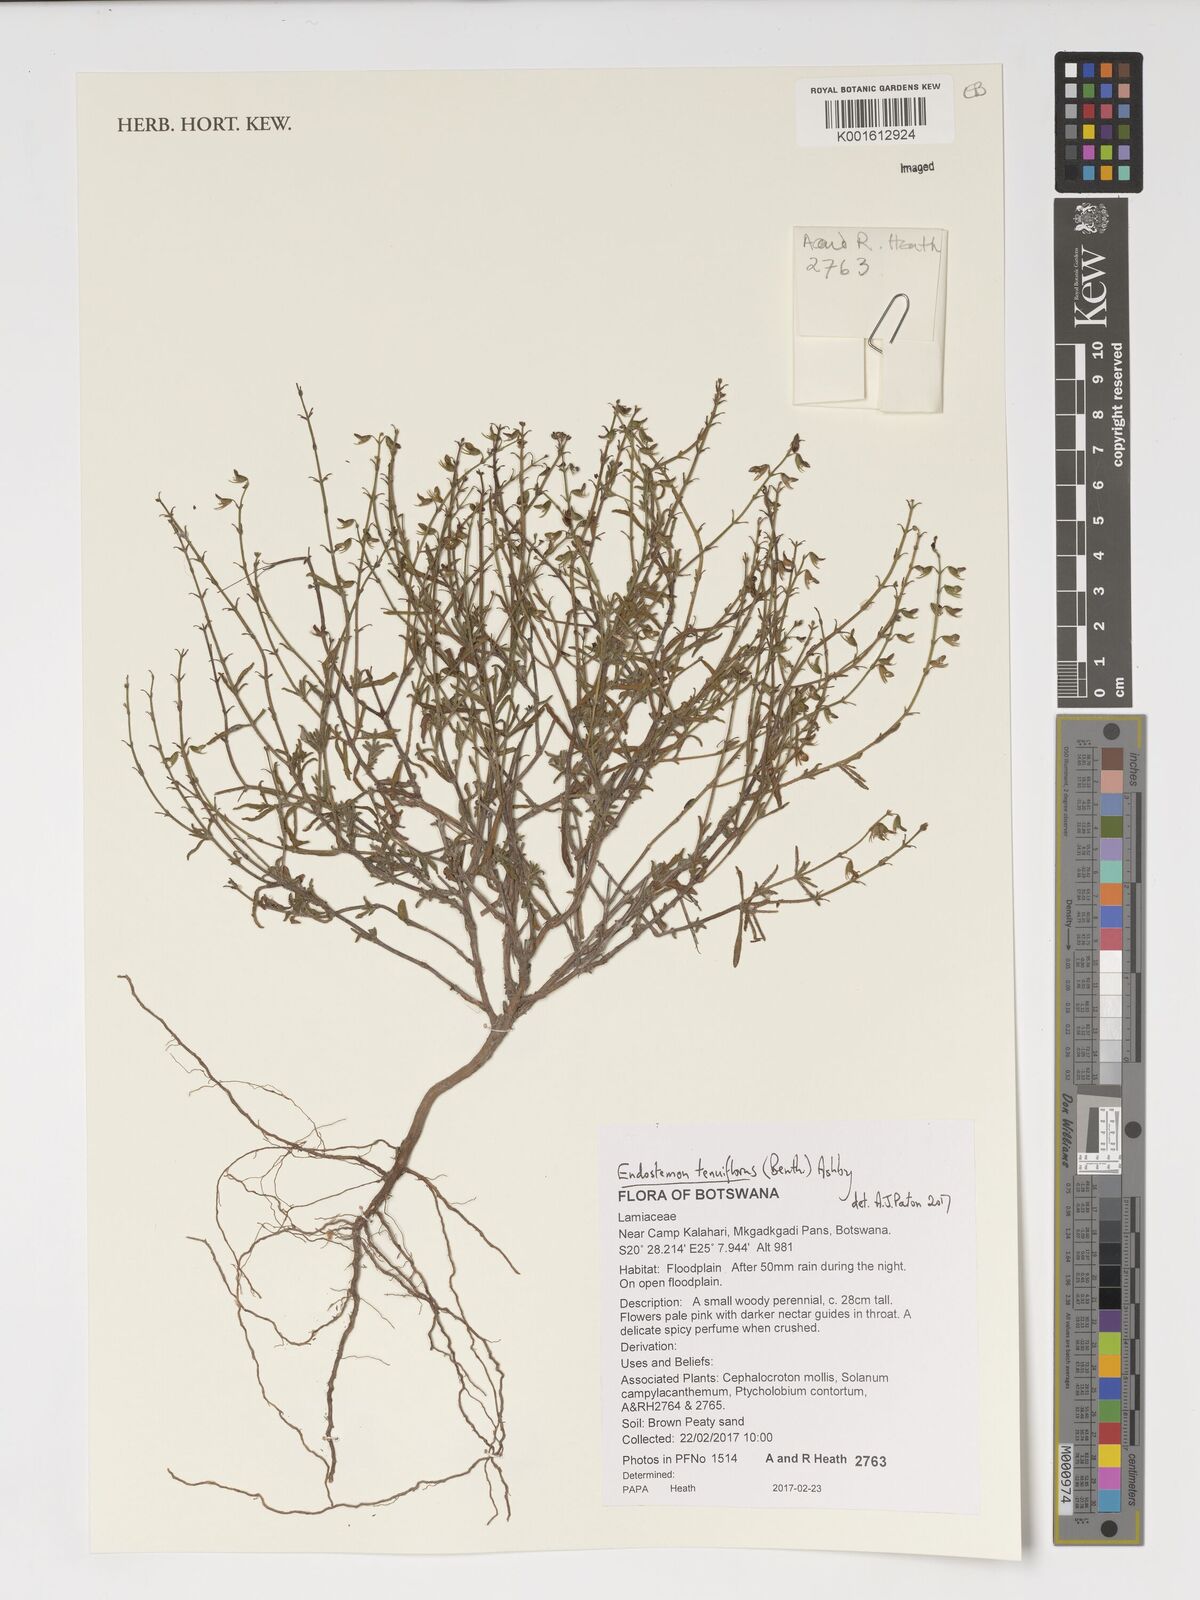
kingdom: Plantae
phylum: Tracheophyta
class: Magnoliopsida
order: Lamiales
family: Lamiaceae
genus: Endostemon
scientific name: Endostemon tenuiflorus
